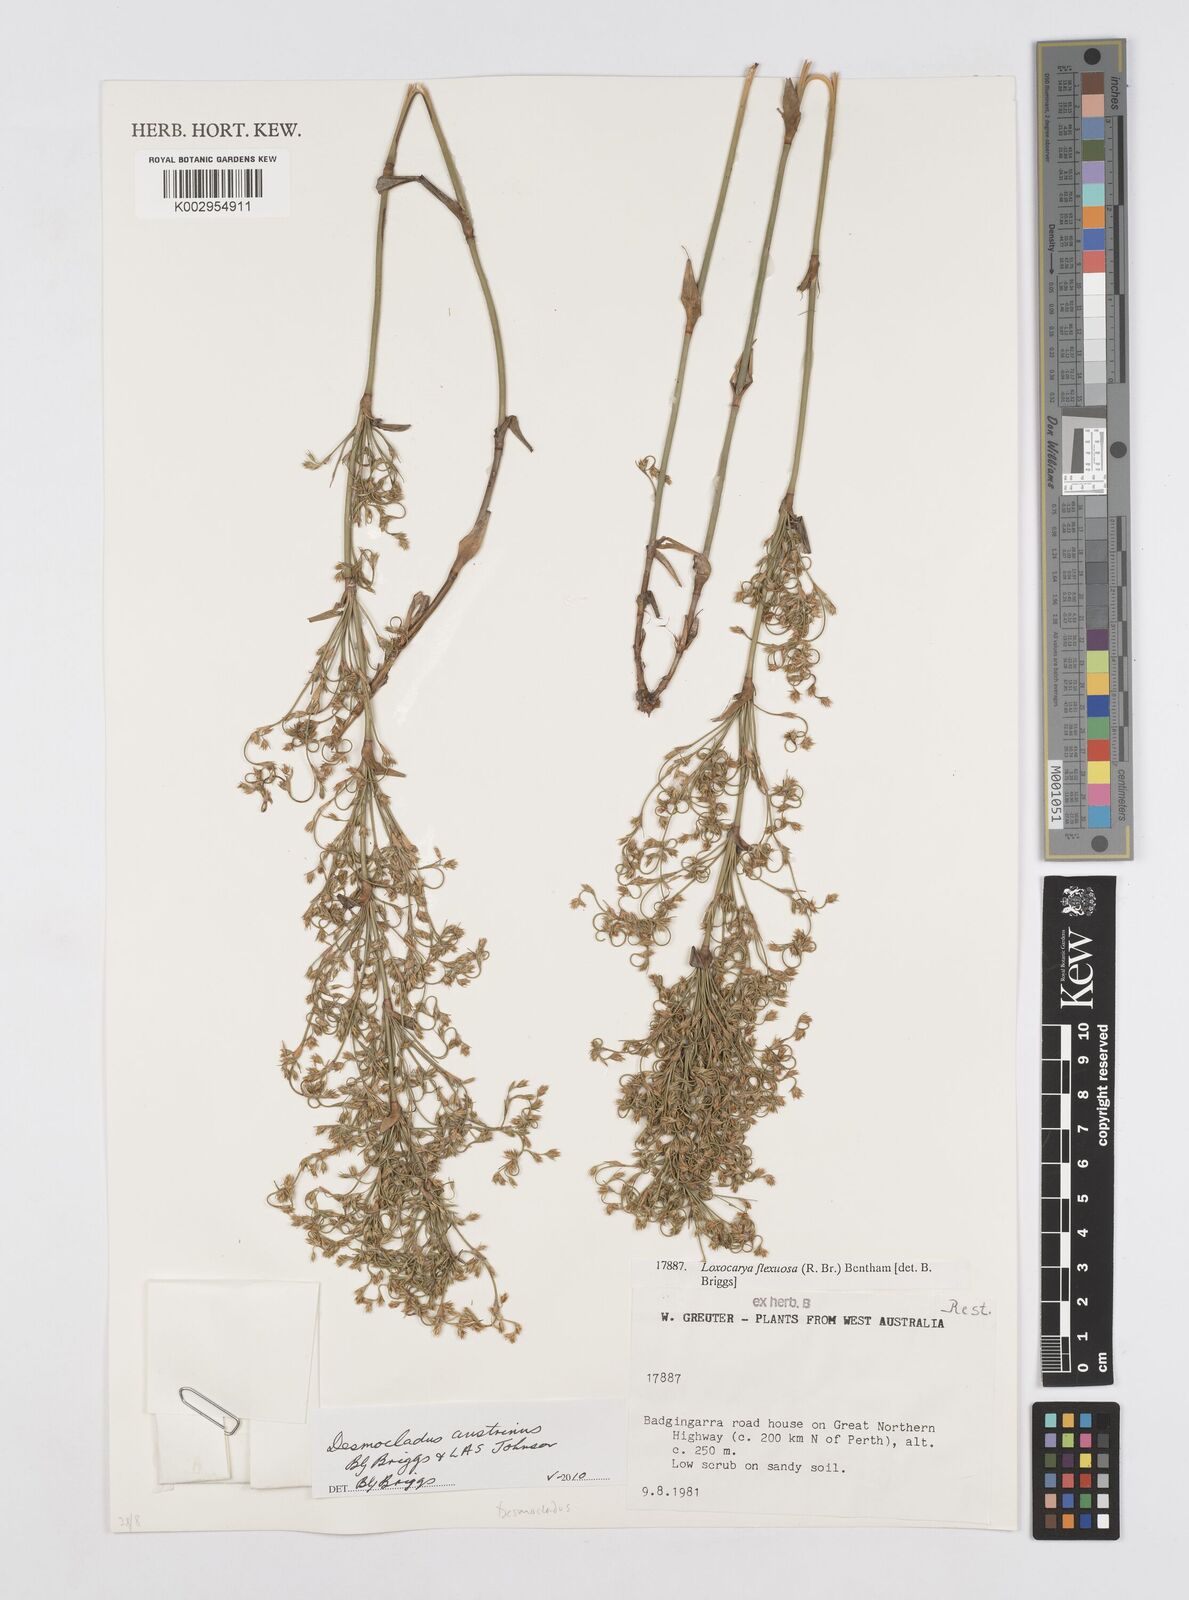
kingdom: Plantae
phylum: Tracheophyta
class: Liliopsida
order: Poales
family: Restionaceae
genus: Desmocladus
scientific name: Desmocladus austrinus
